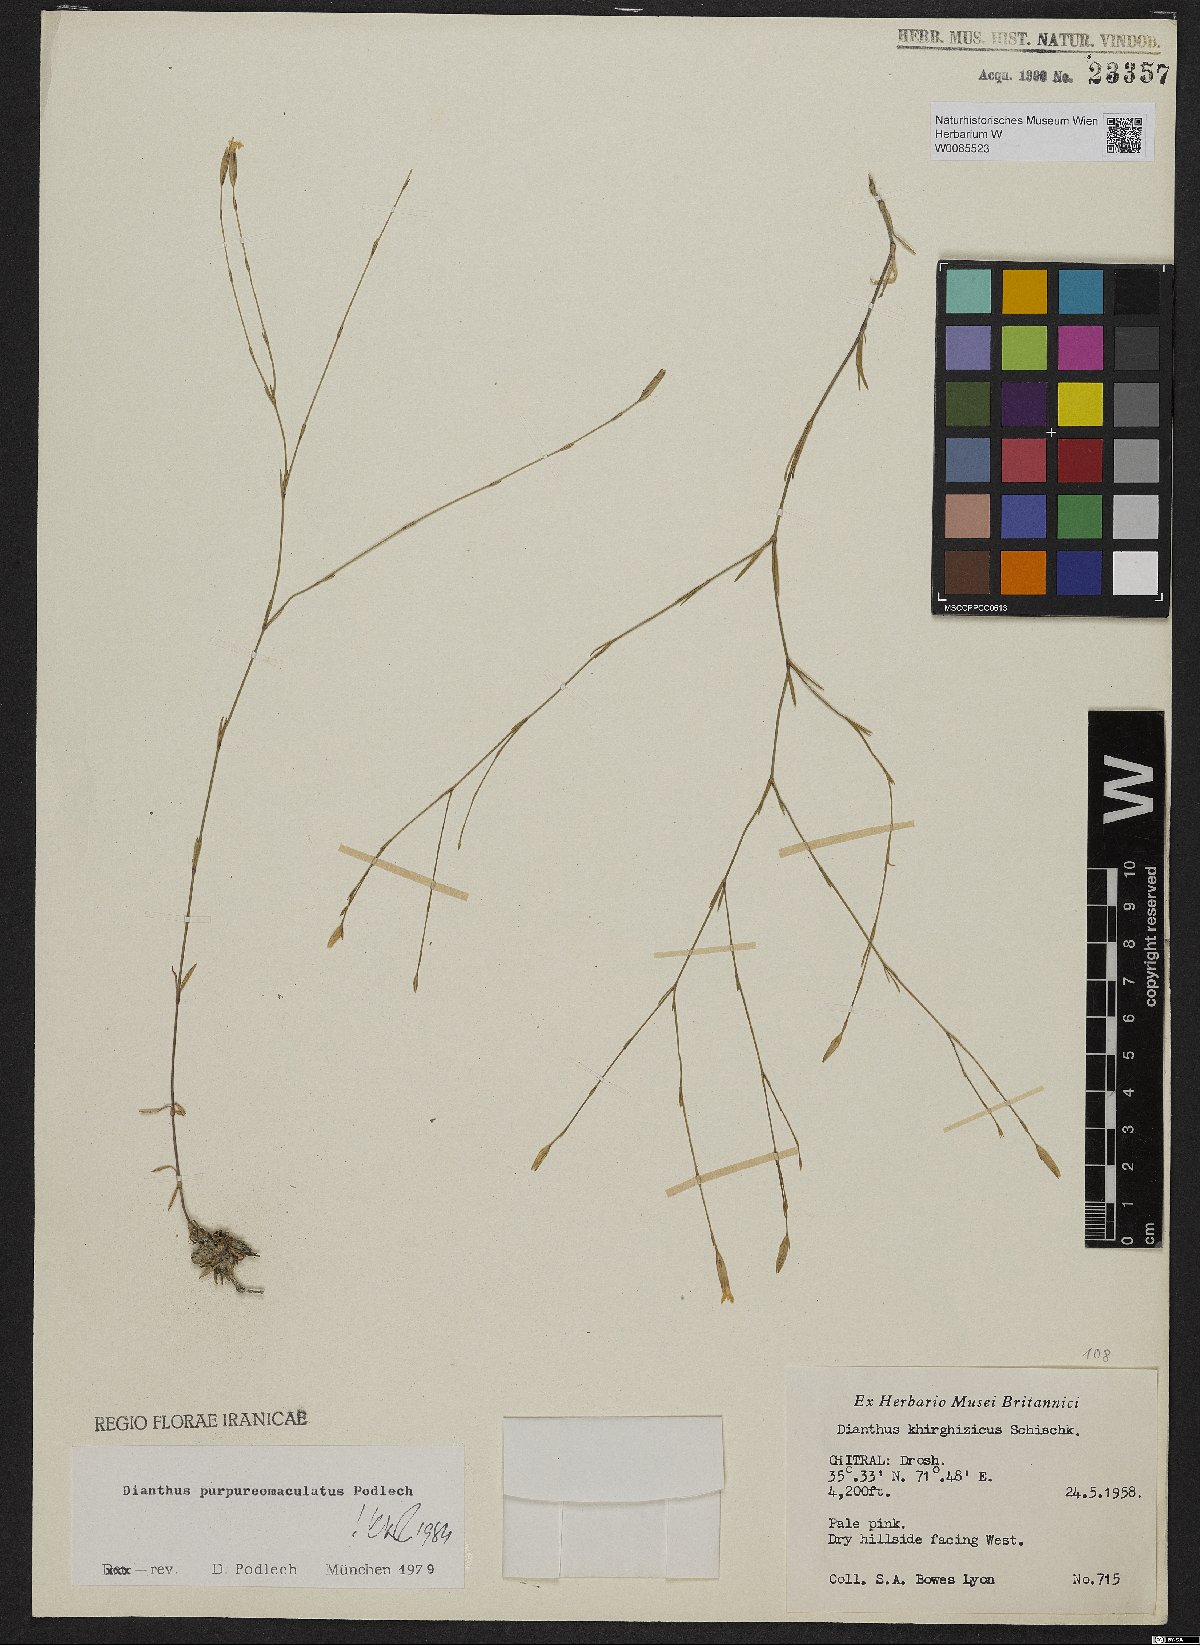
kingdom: Plantae
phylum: Tracheophyta
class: Magnoliopsida
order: Caryophyllales
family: Caryophyllaceae
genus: Dianthus
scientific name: Dianthus purpureimaculatus
